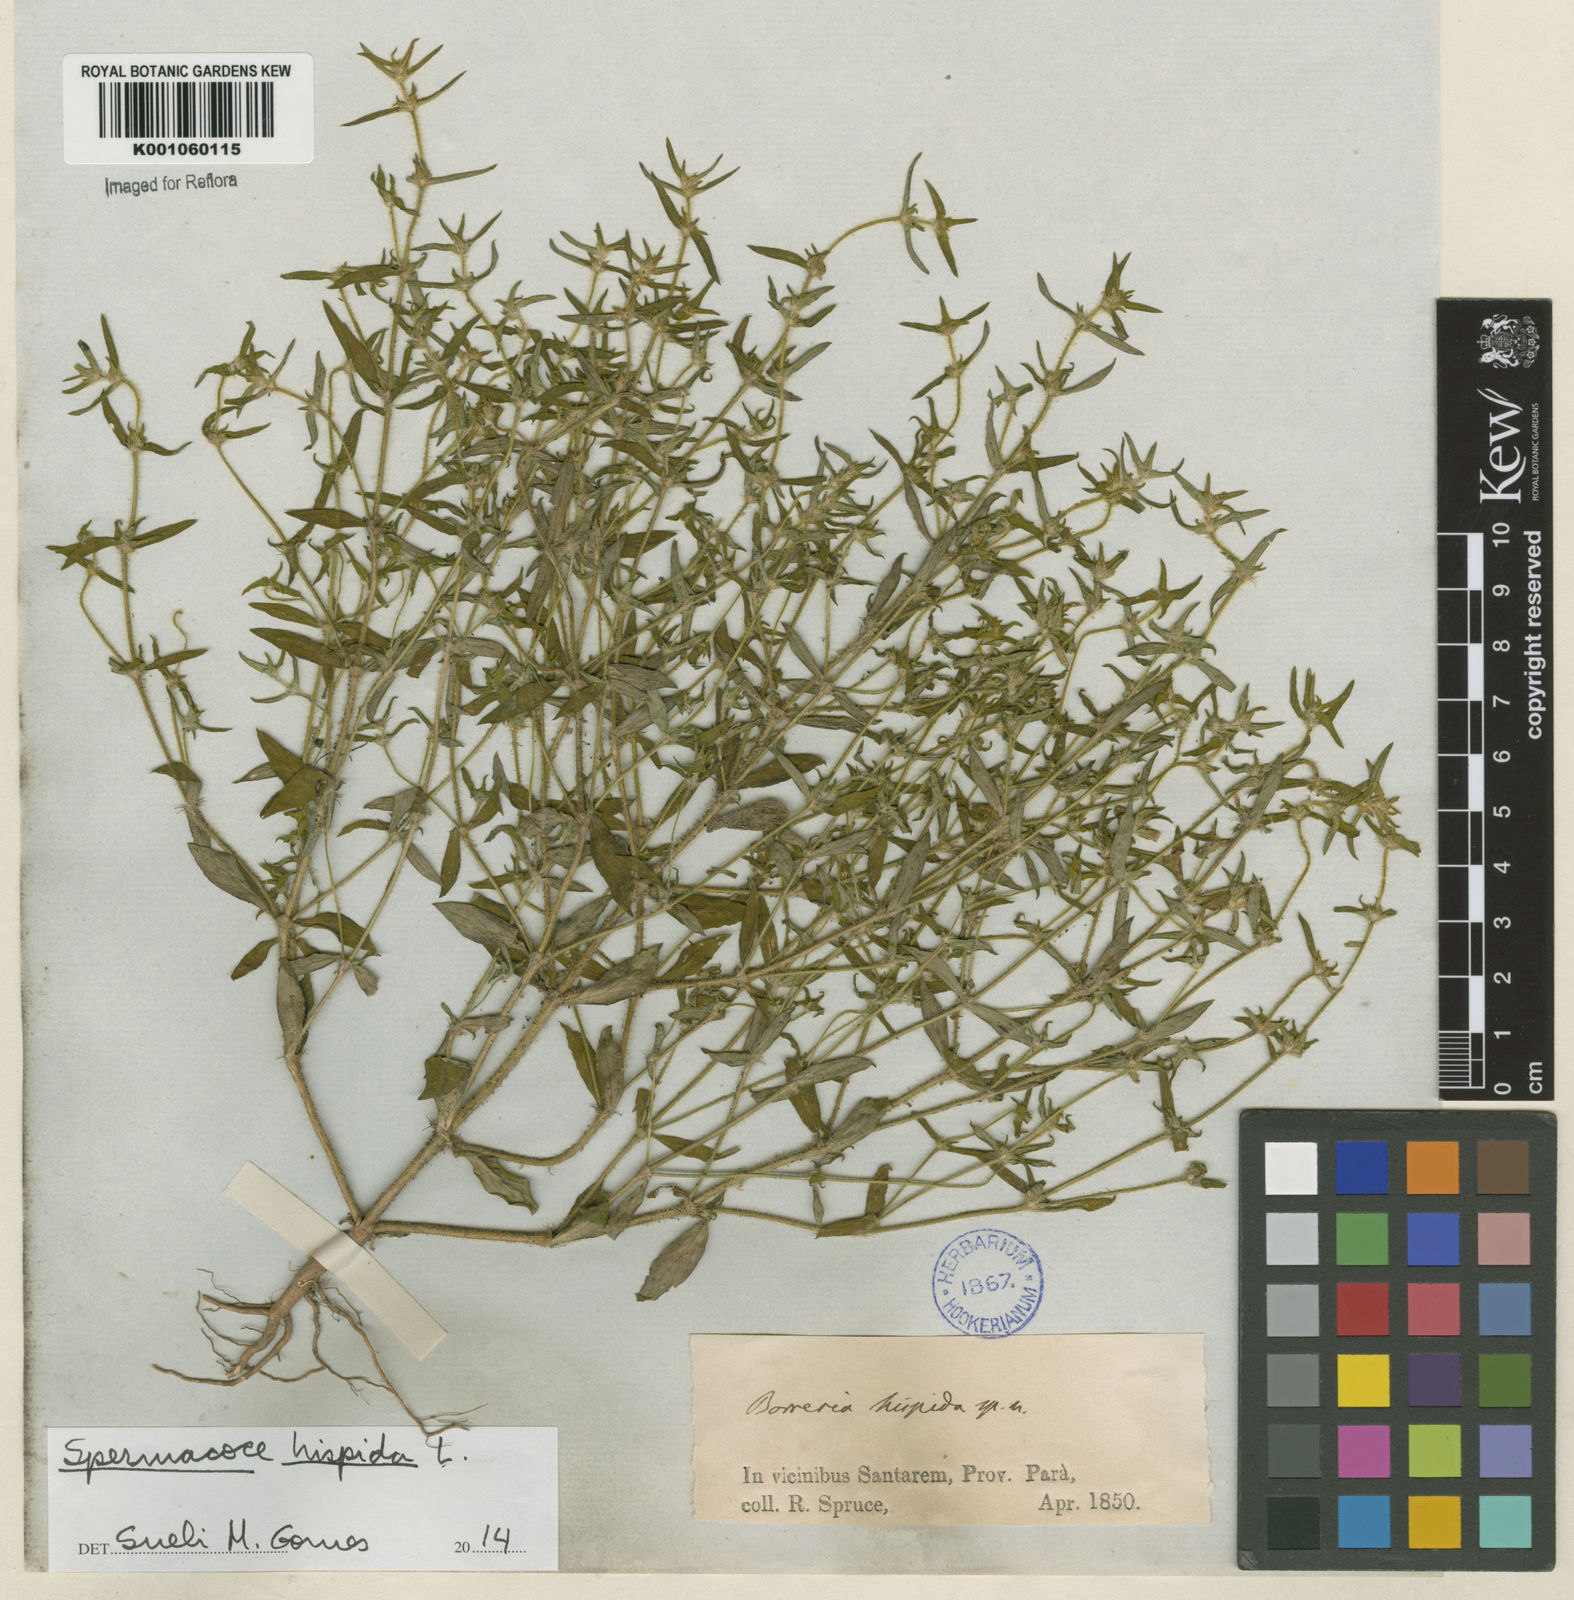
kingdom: Plantae
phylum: Tracheophyta
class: Magnoliopsida
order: Gentianales
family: Rubiaceae
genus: Spermacoce
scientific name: Spermacoce hispida
